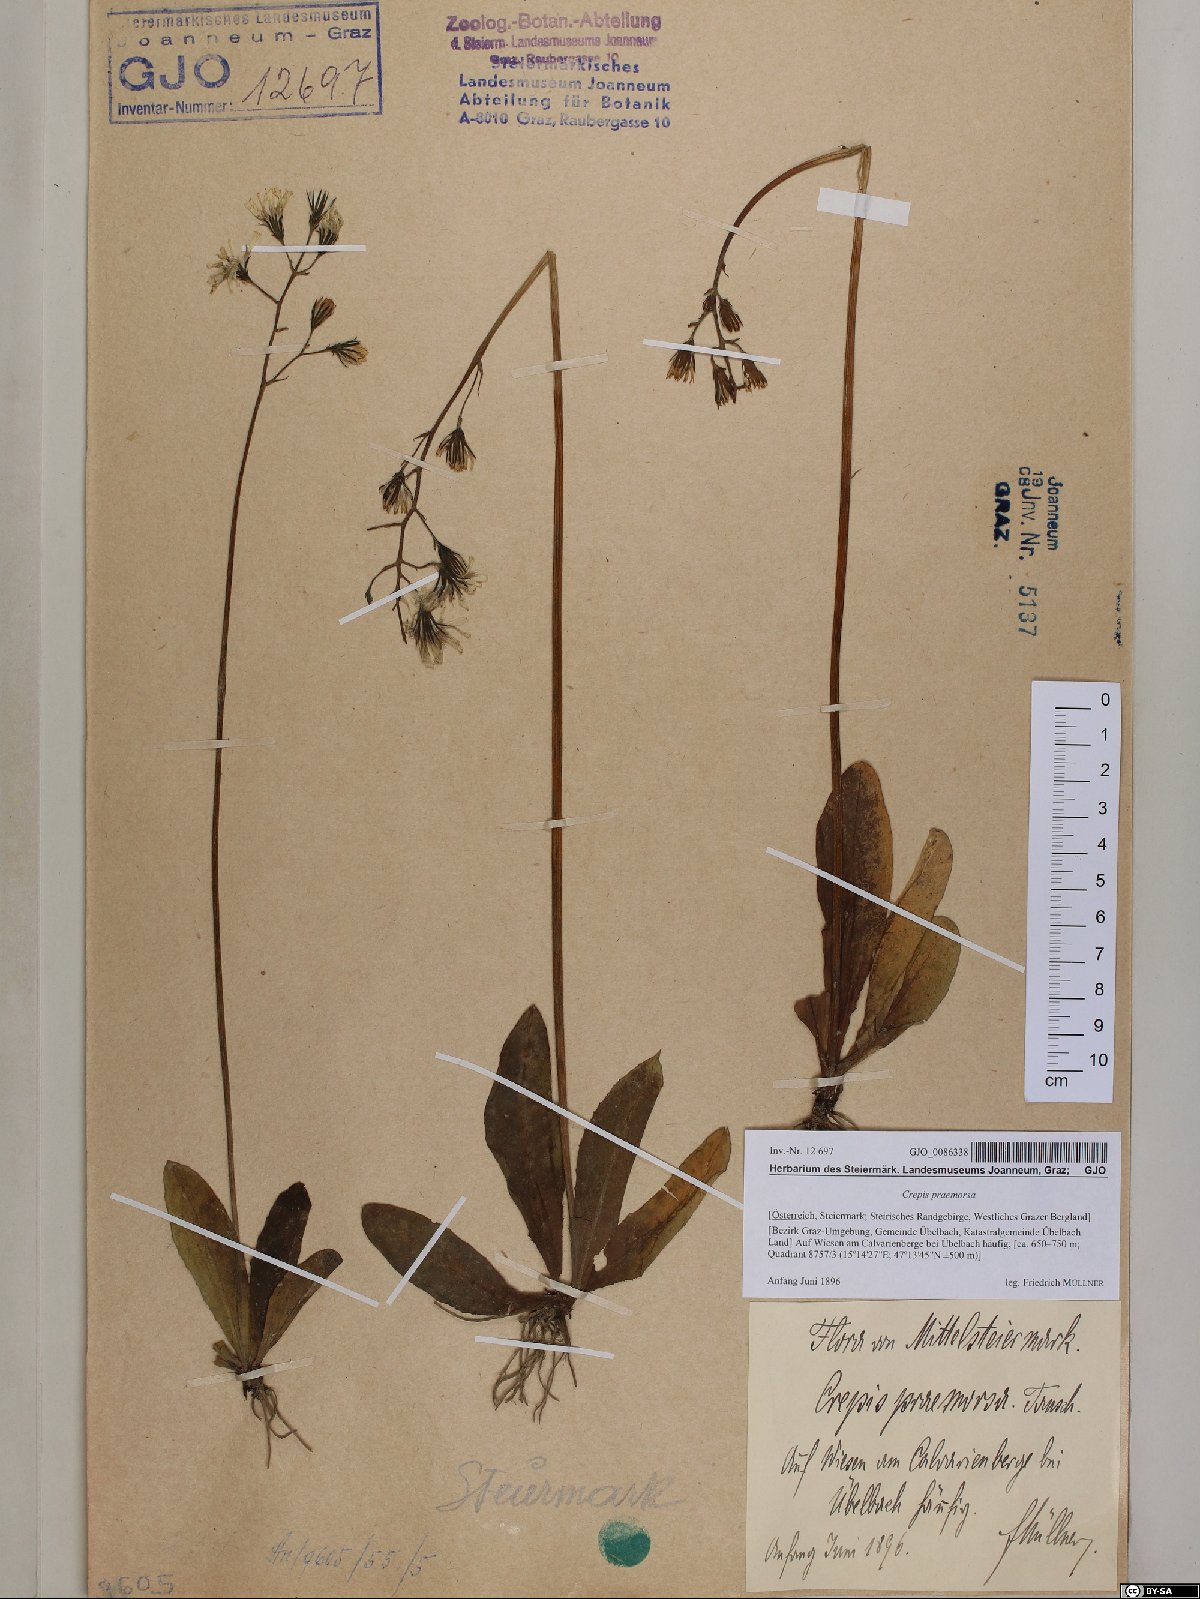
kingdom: Plantae
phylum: Tracheophyta
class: Magnoliopsida
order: Asterales
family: Asteraceae
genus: Crepis
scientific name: Crepis praemorsa
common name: Leafless hawk's-beard
